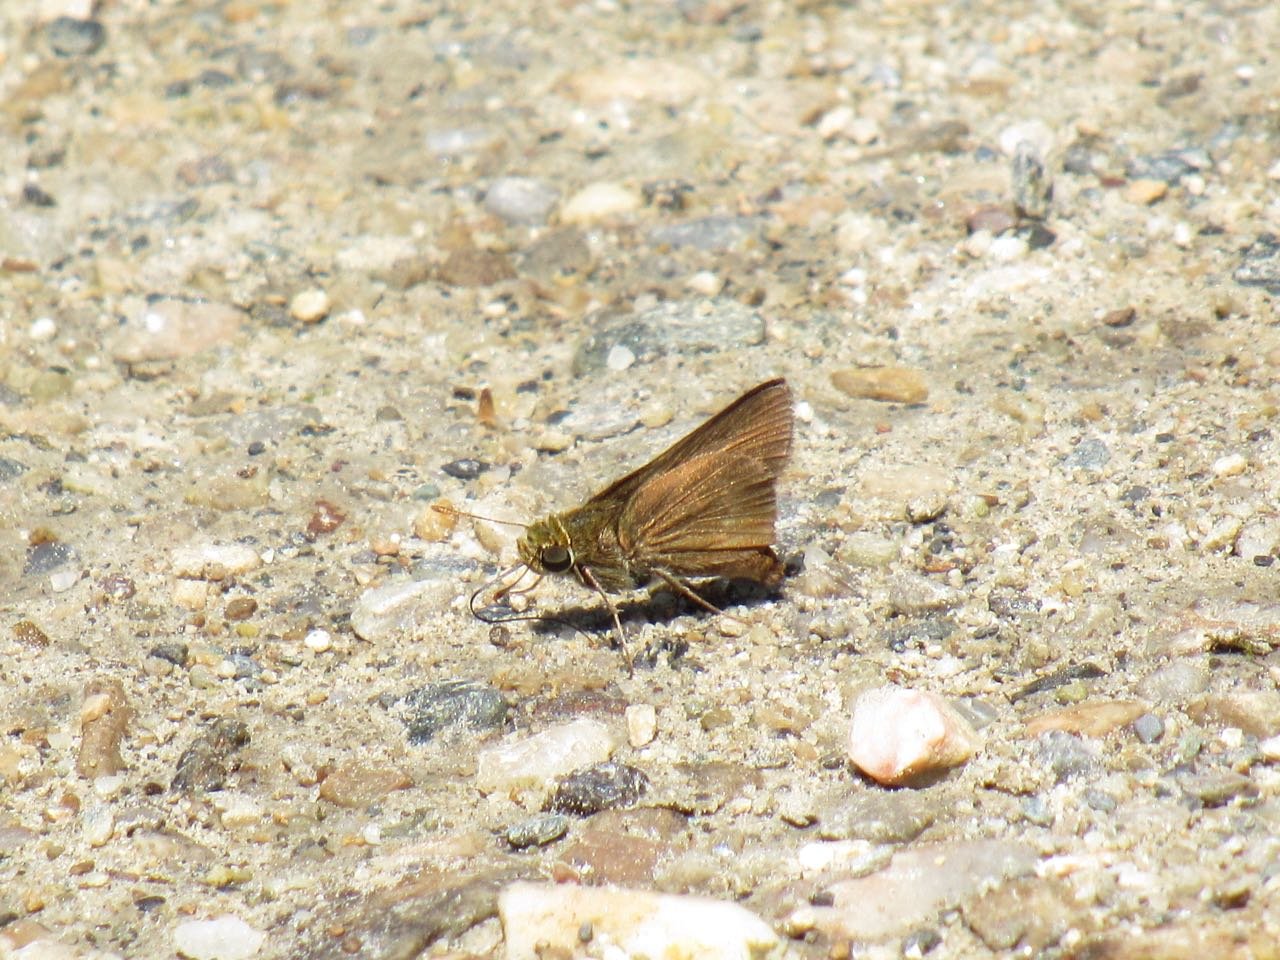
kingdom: Animalia
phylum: Arthropoda
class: Insecta
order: Lepidoptera
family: Hesperiidae
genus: Euphyes
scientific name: Euphyes vestris
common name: Dun Skipper
